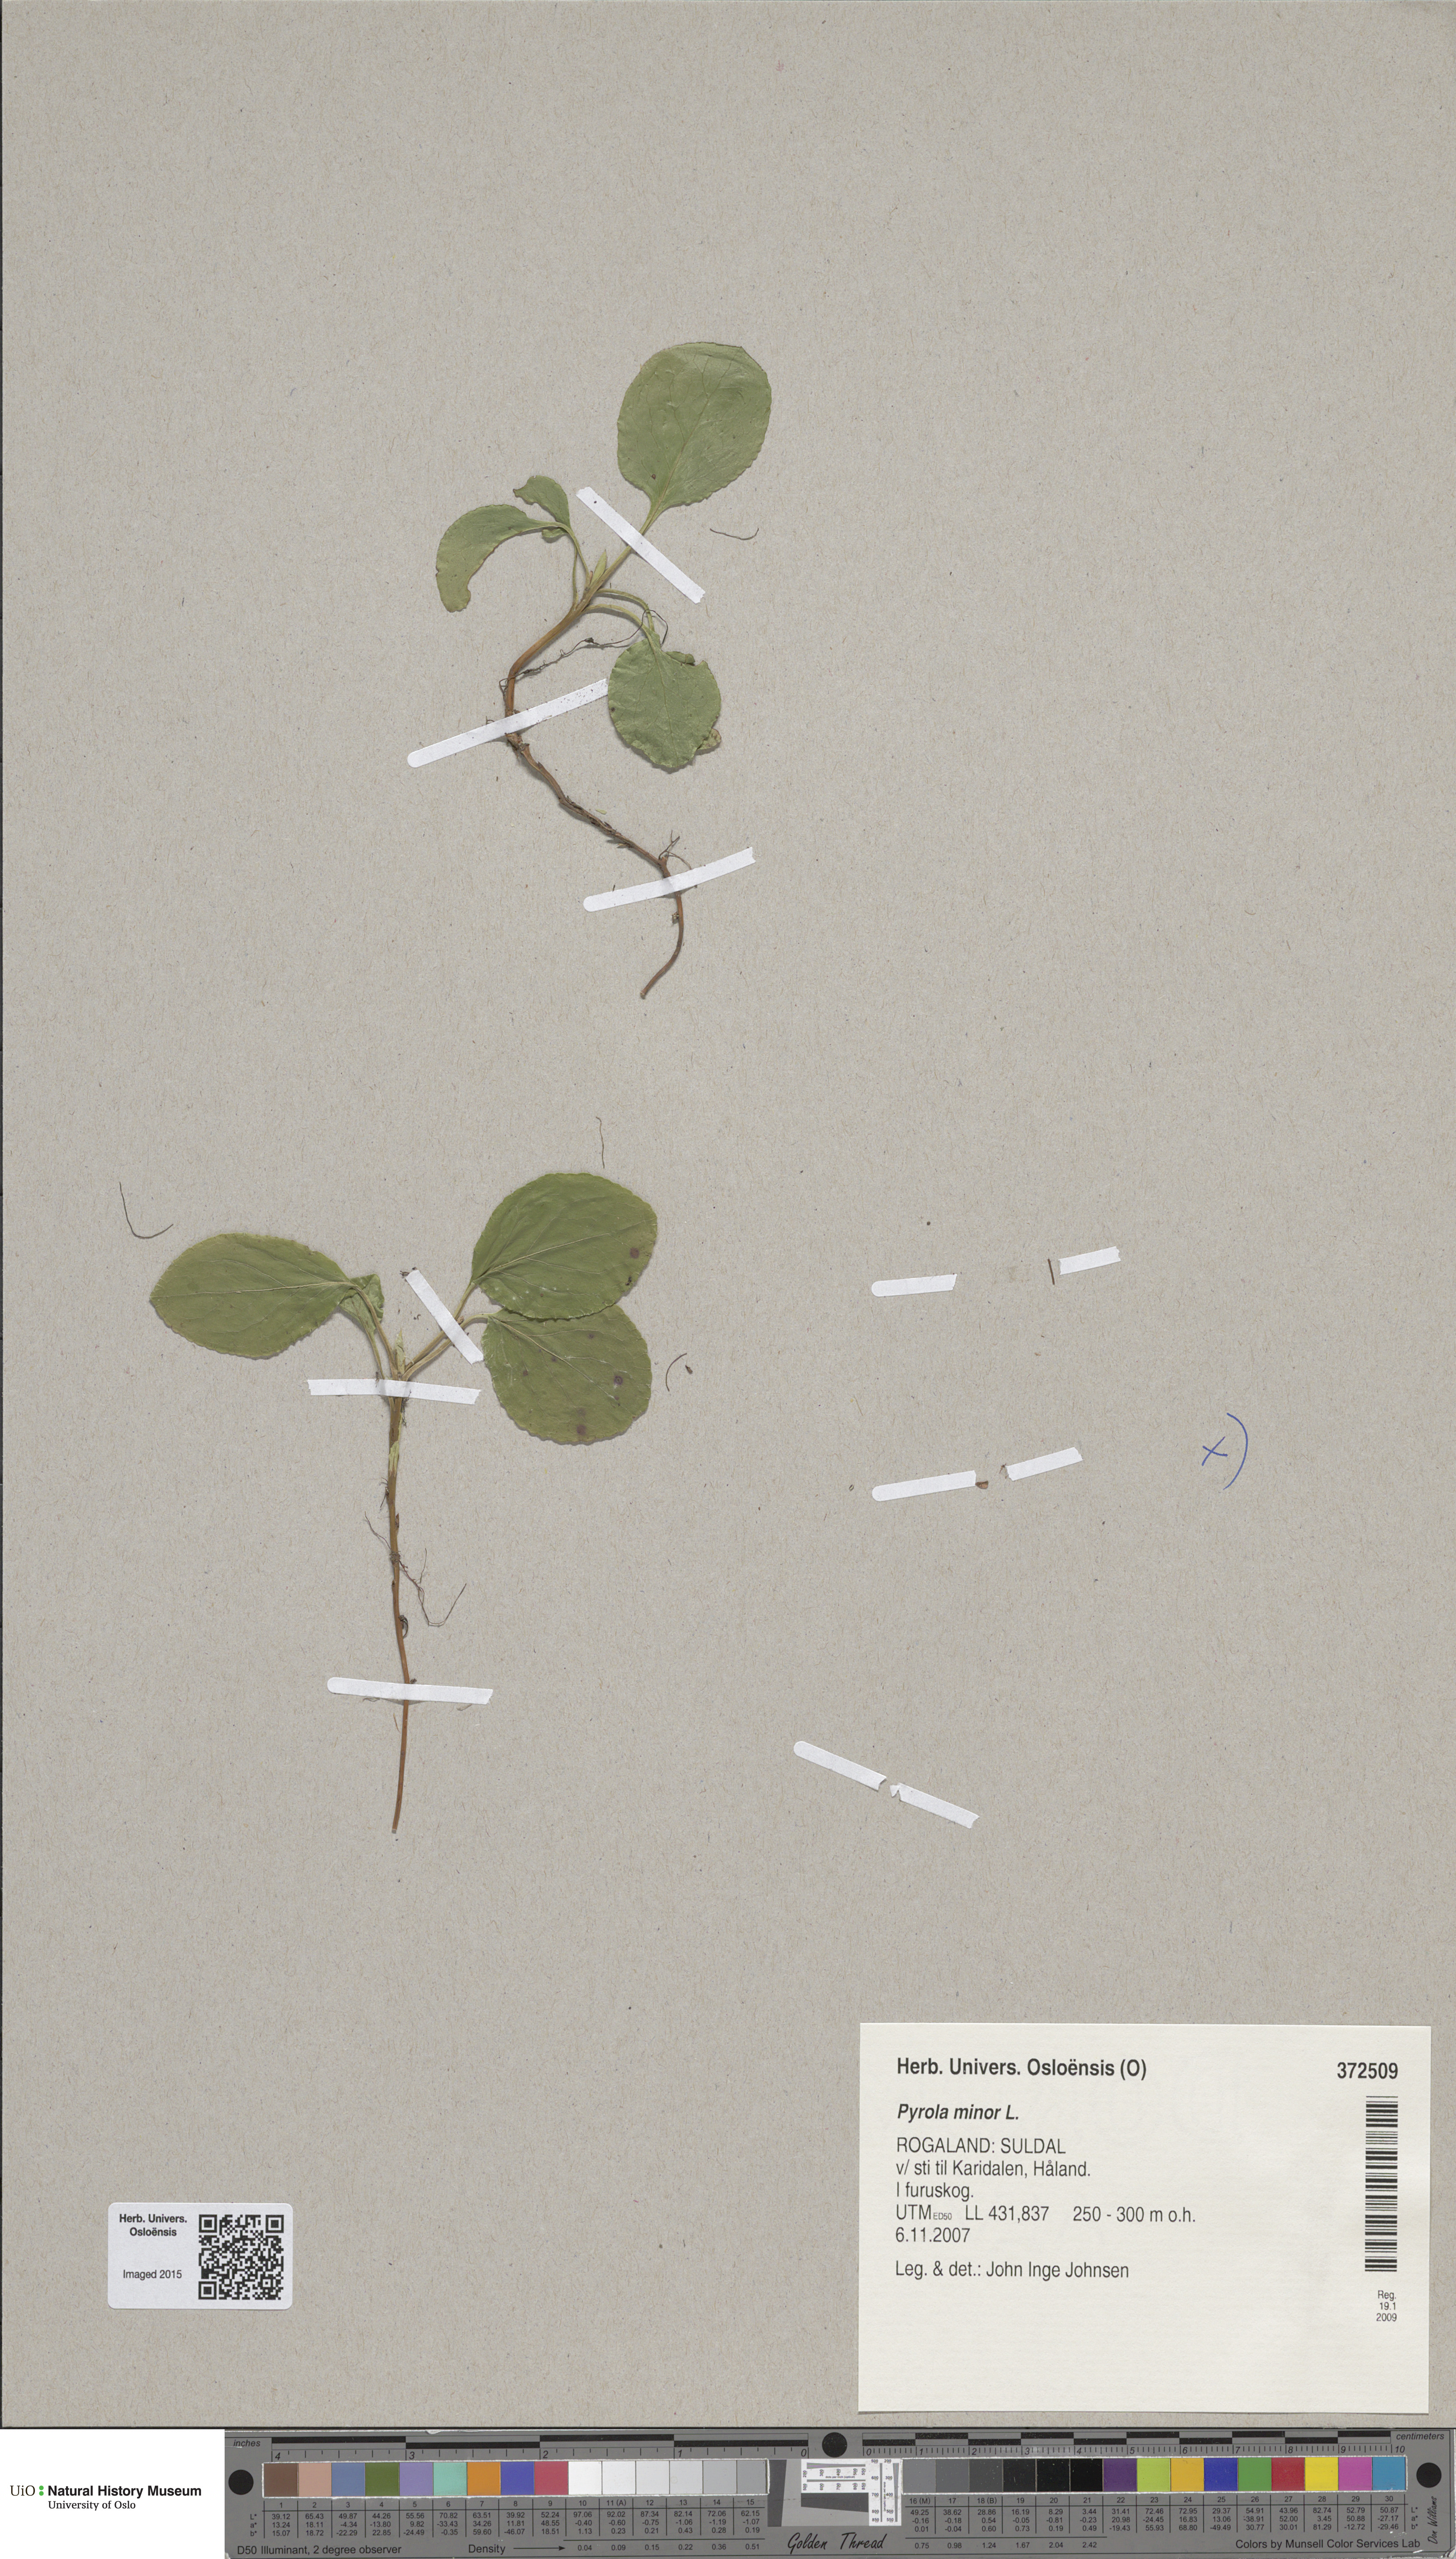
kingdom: Plantae
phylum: Tracheophyta
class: Magnoliopsida
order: Ericales
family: Ericaceae
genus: Pyrola
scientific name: Pyrola minor
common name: Common wintergreen
